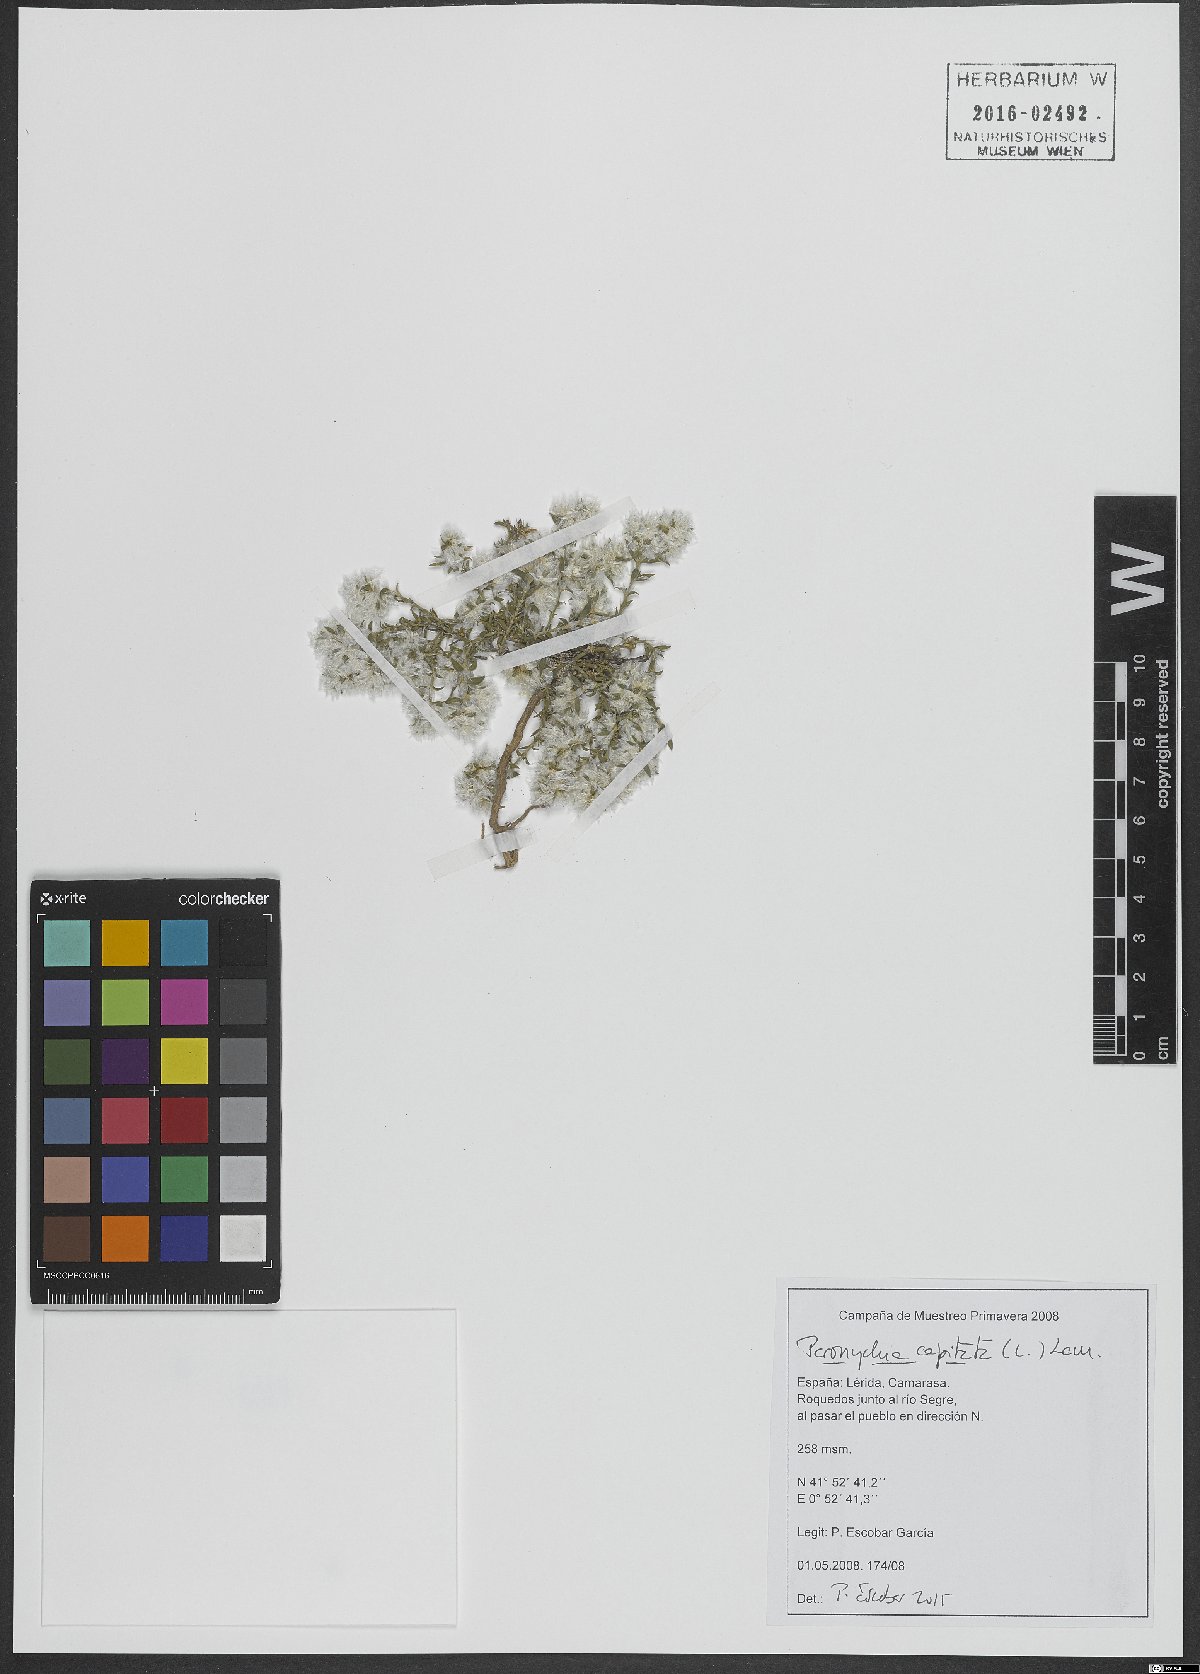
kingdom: Plantae
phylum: Tracheophyta
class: Magnoliopsida
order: Caryophyllales
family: Caryophyllaceae
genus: Paronychia
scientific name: Paronychia capitata
